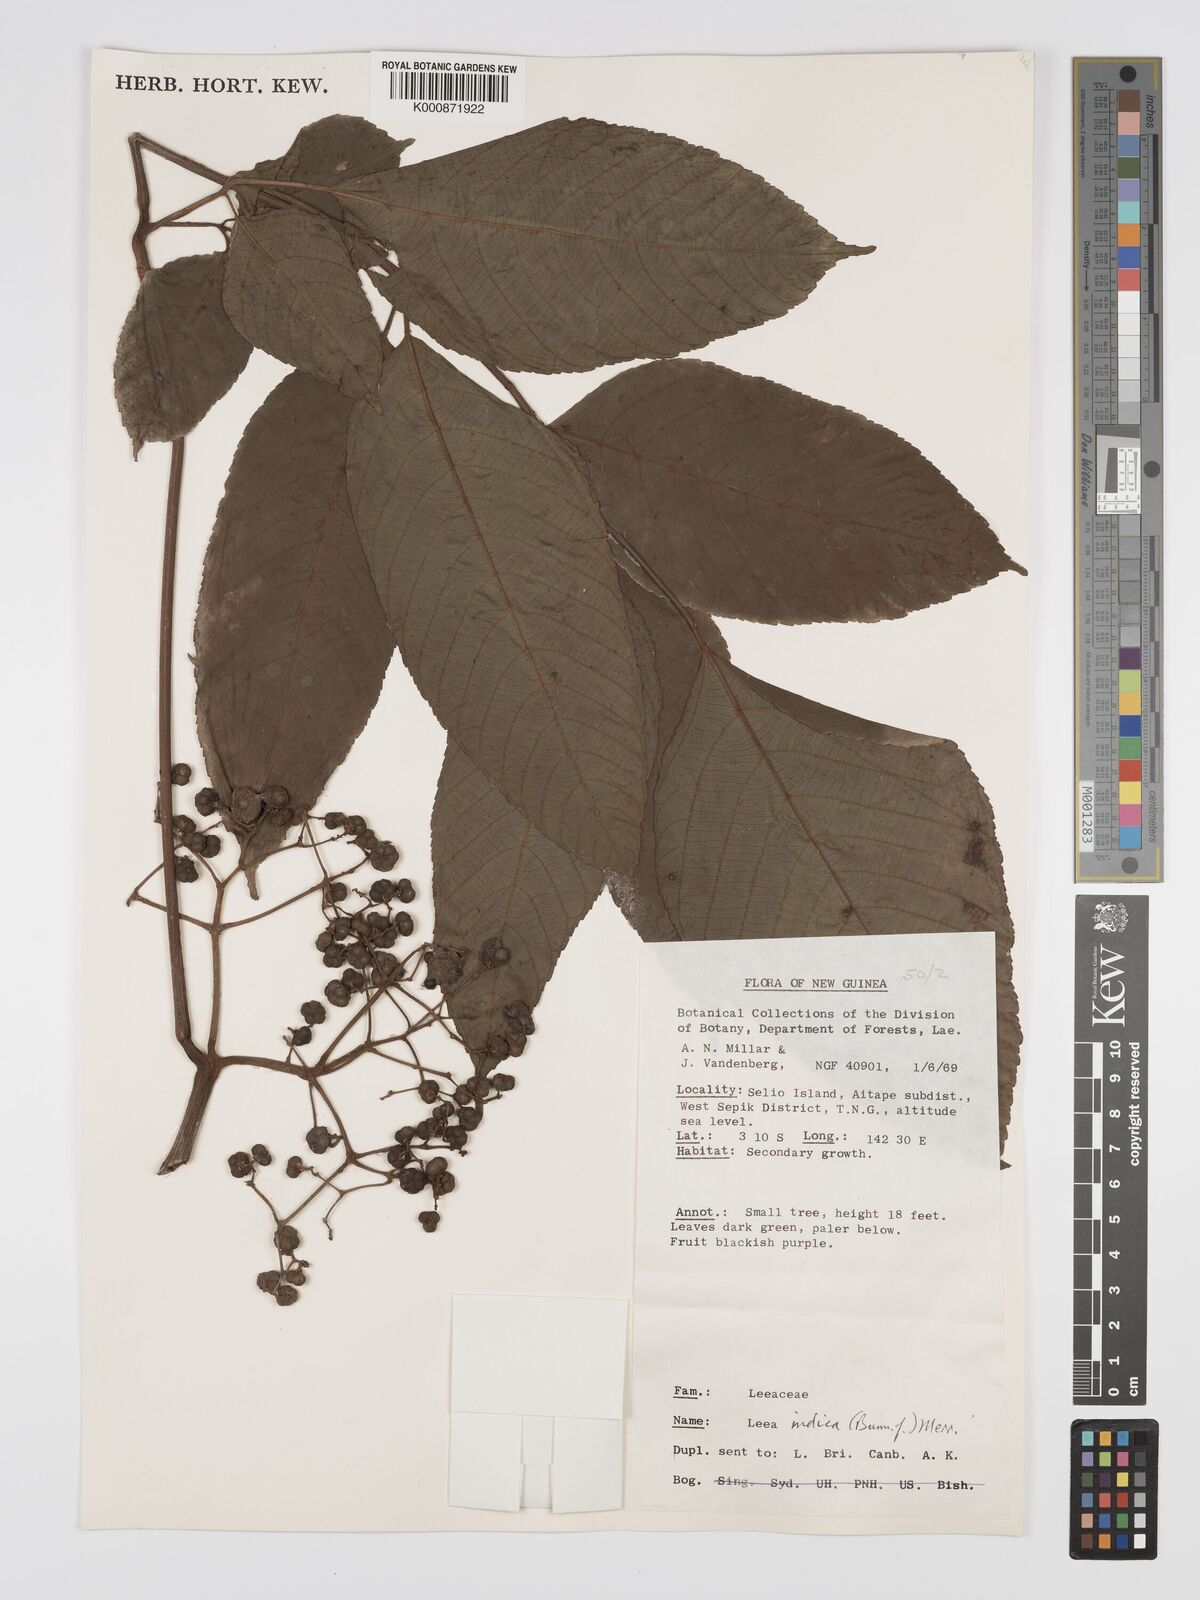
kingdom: Plantae
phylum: Tracheophyta
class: Magnoliopsida
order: Vitales
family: Vitaceae
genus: Leea
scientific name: Leea indica
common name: Bandicoot-berry
